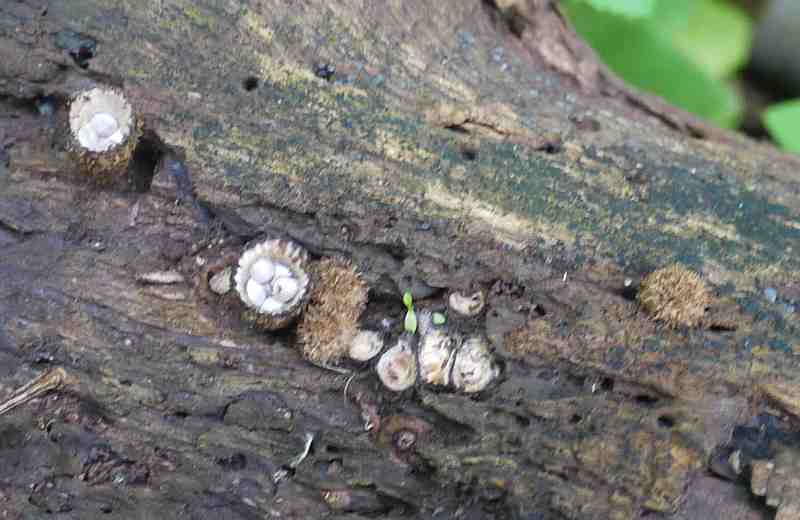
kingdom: Fungi
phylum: Basidiomycota
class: Agaricomycetes
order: Agaricales
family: Agaricaceae
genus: Cyathus
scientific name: Cyathus striatus
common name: stribet redesvamp
